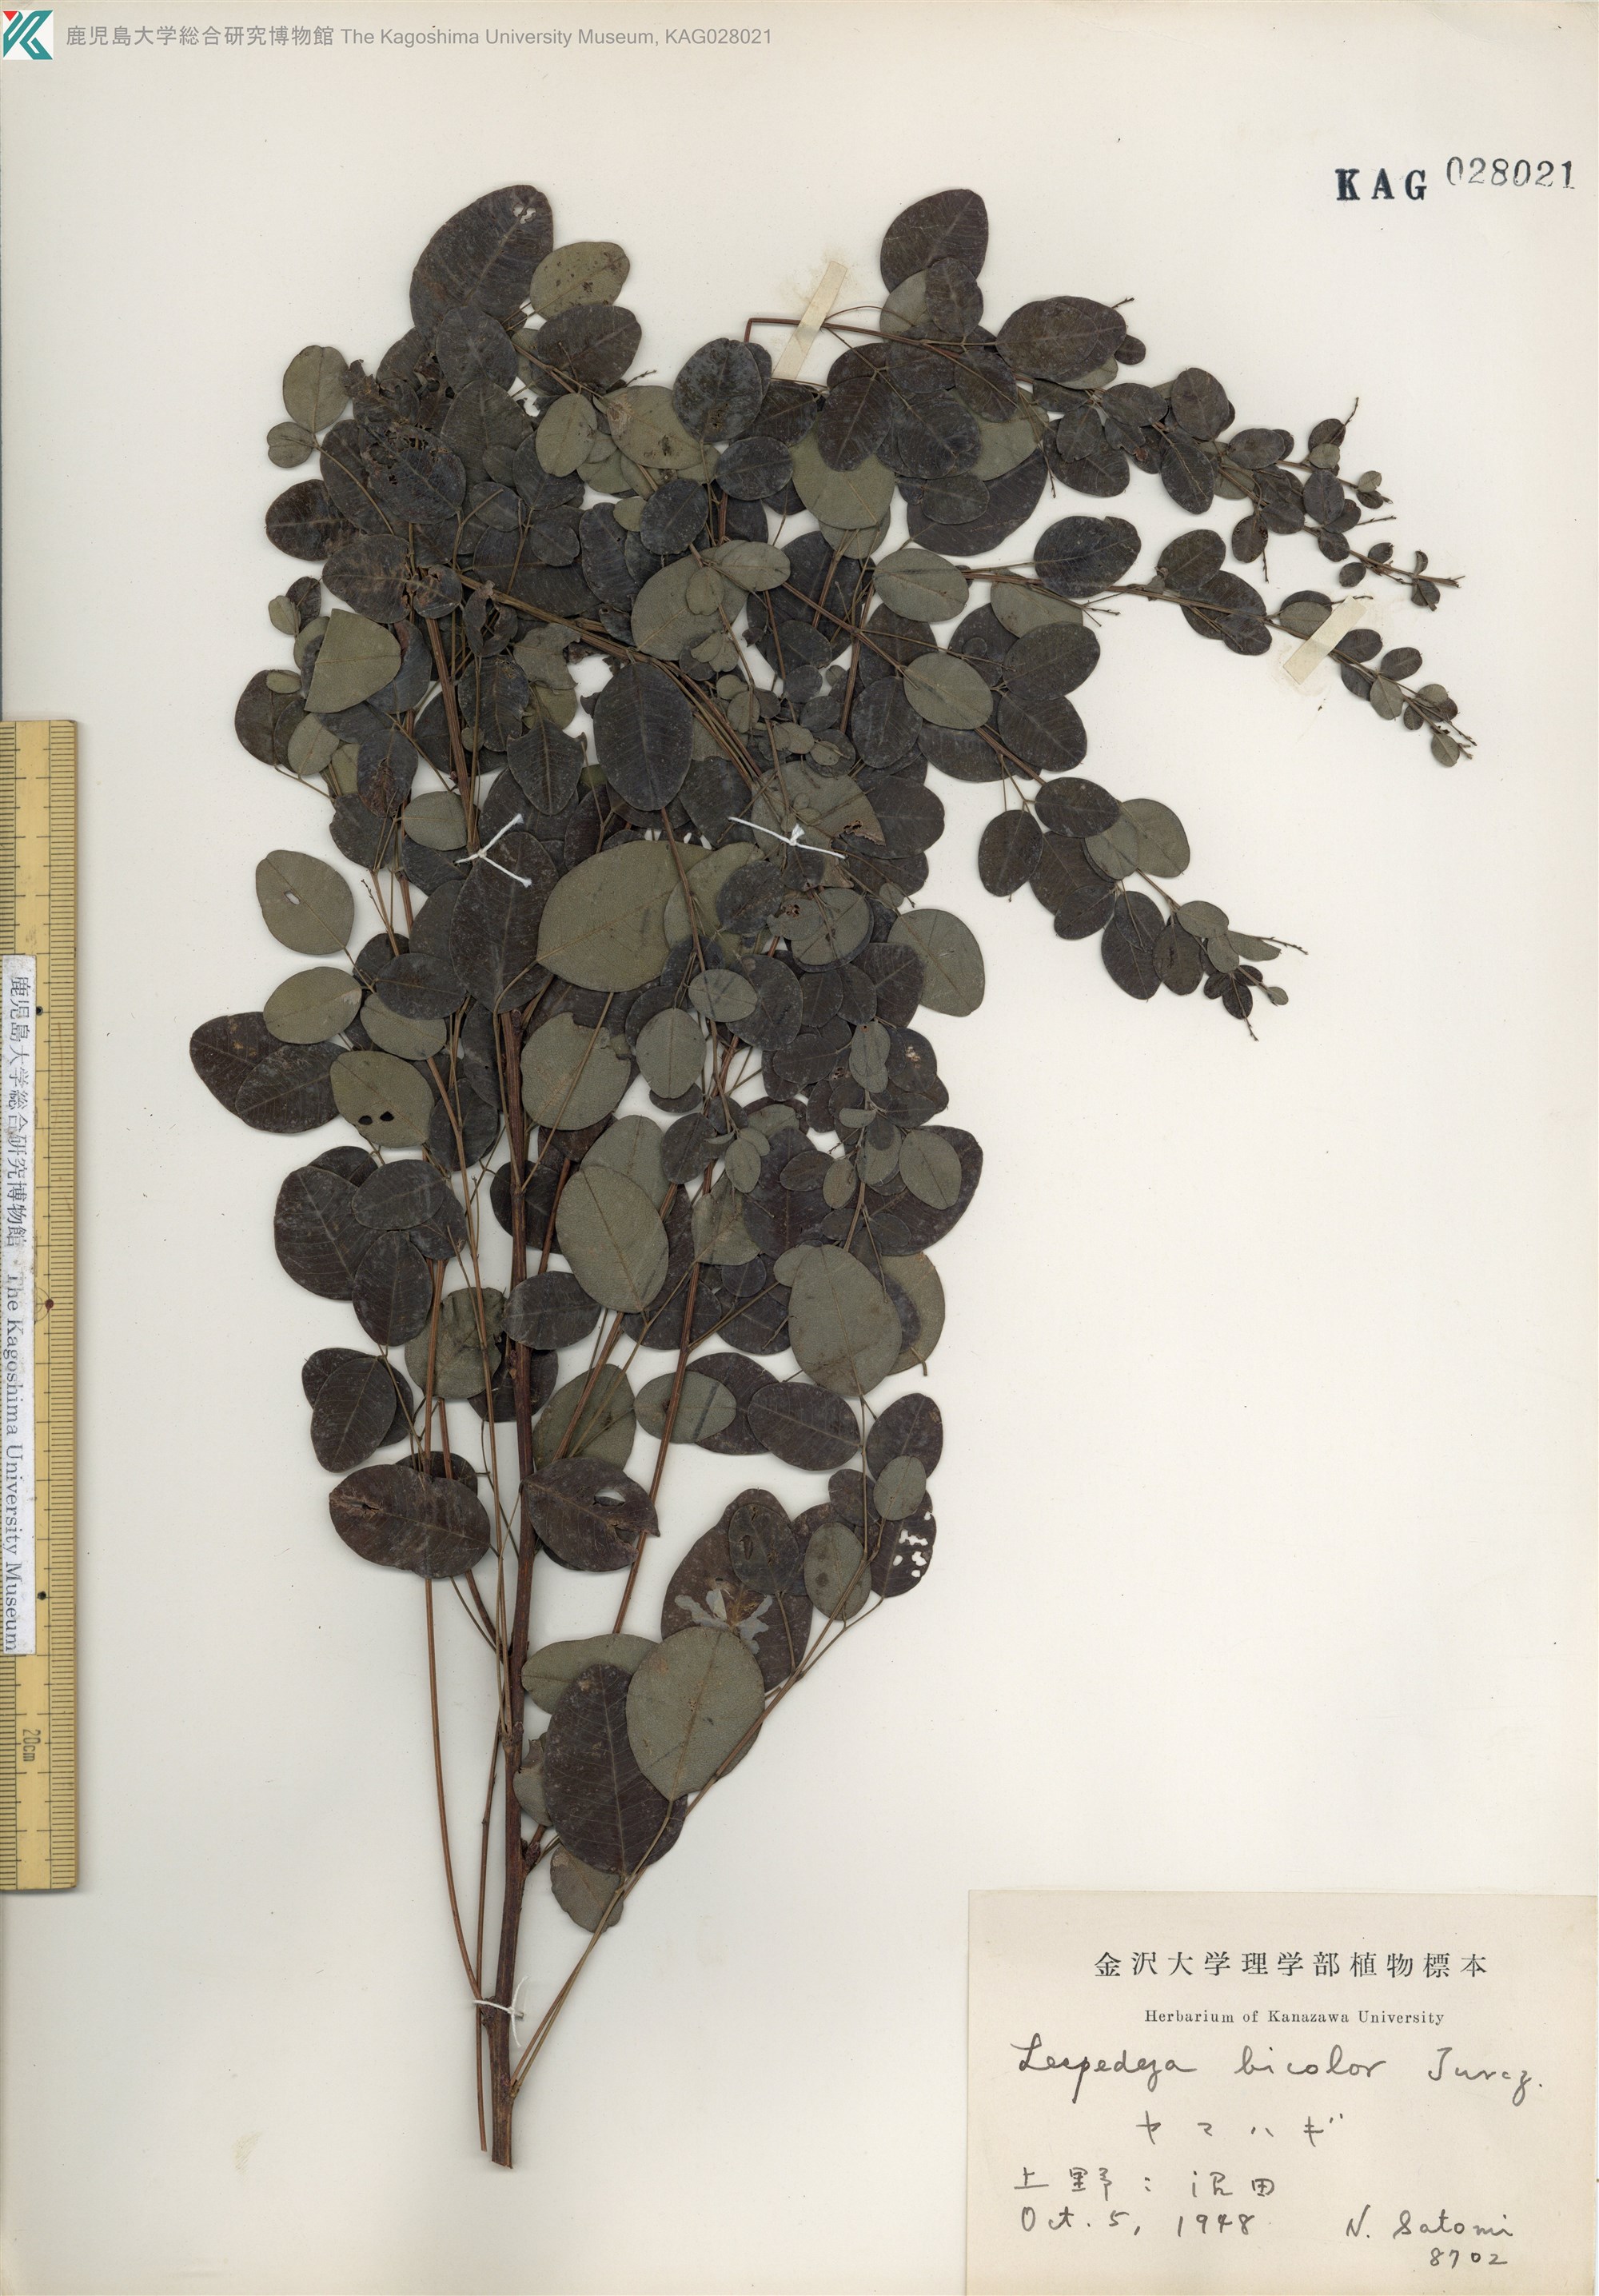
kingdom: Plantae
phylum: Tracheophyta
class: Magnoliopsida
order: Fabales
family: Fabaceae
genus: Lespedeza
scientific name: Lespedeza bicolor
